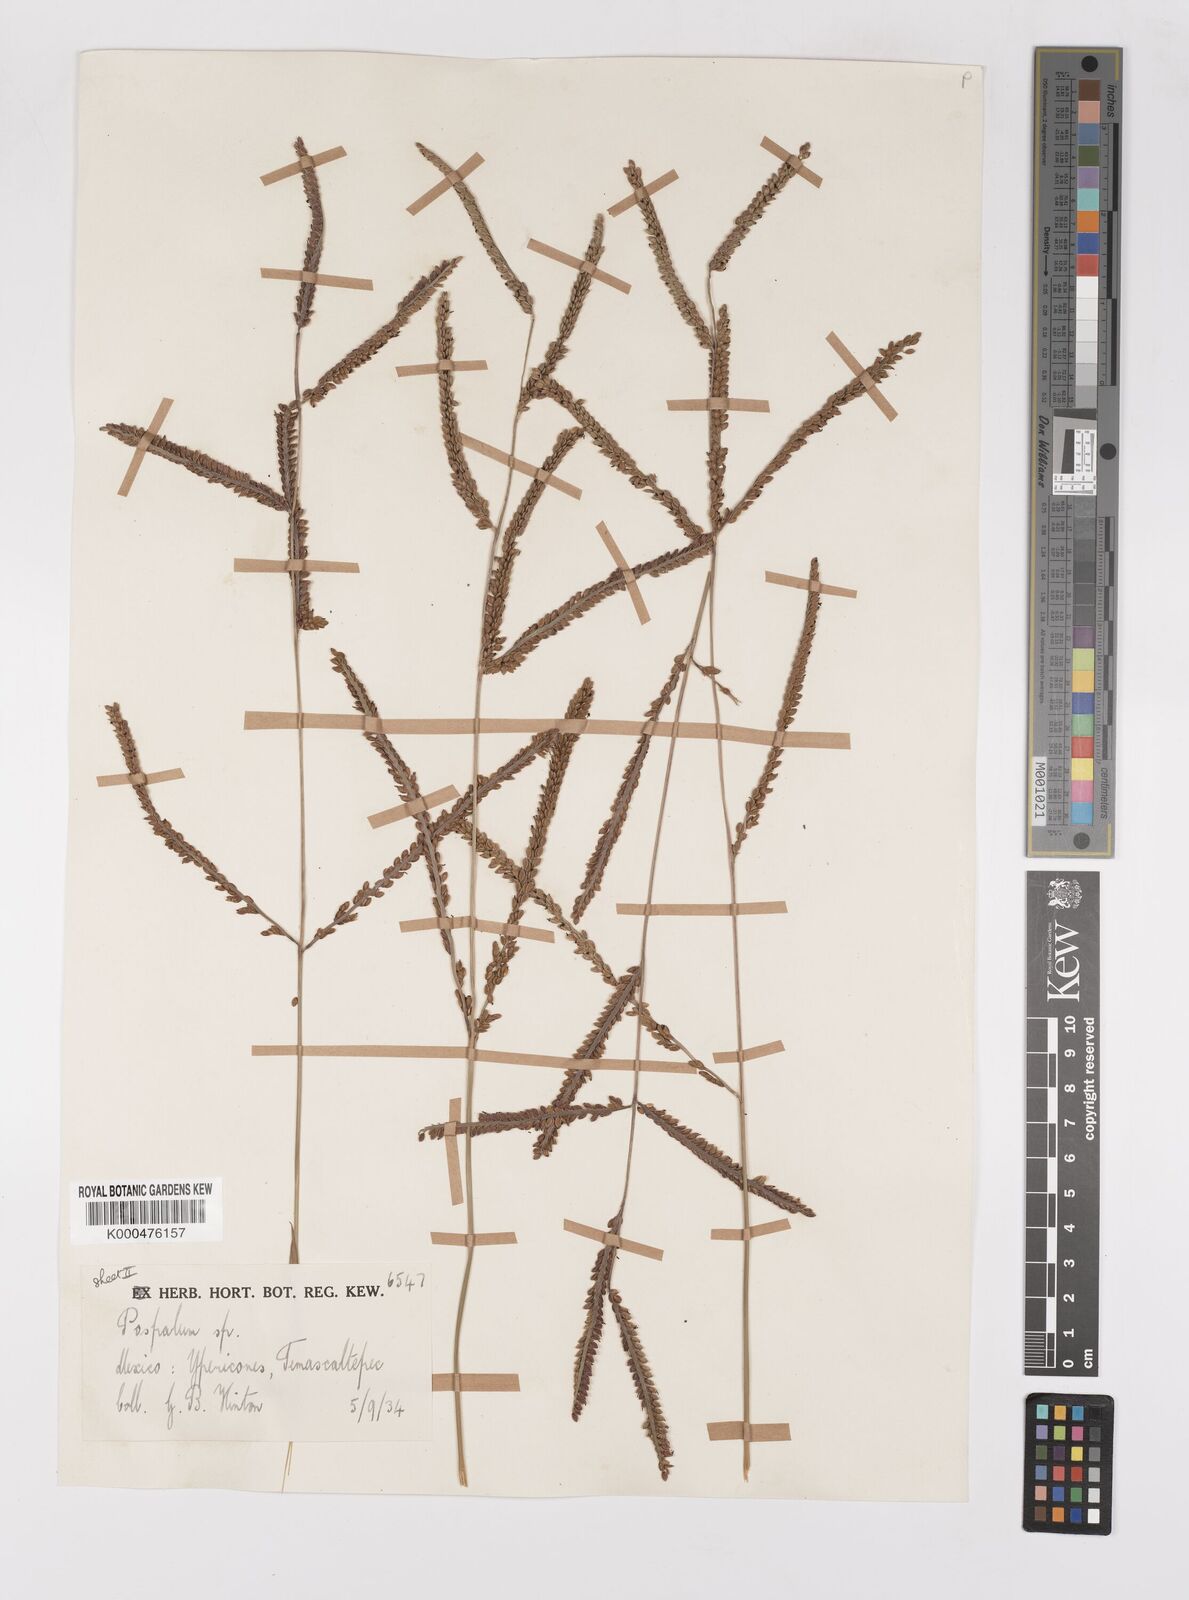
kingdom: Plantae
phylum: Tracheophyta
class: Liliopsida
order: Poales
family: Poaceae
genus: Paspalum
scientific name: Paspalum
